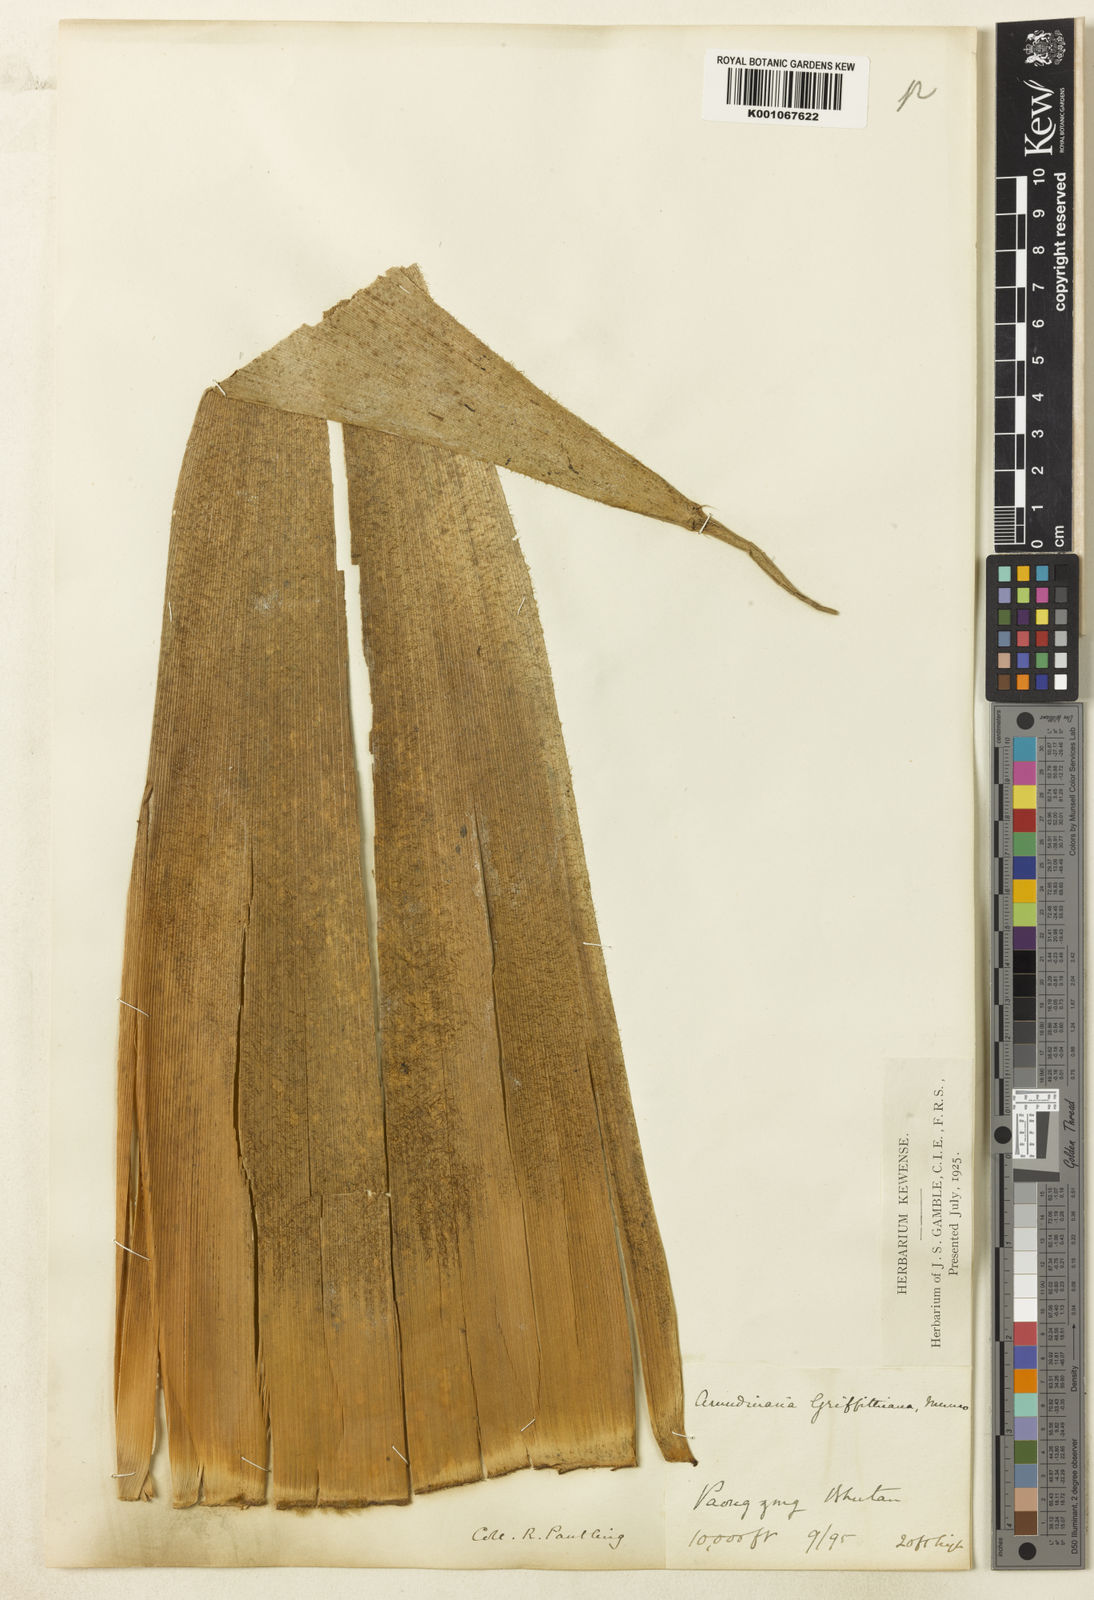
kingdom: Plantae
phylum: Tracheophyta
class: Liliopsida
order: Poales
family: Poaceae
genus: Yushania
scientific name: Yushania pantlingii
